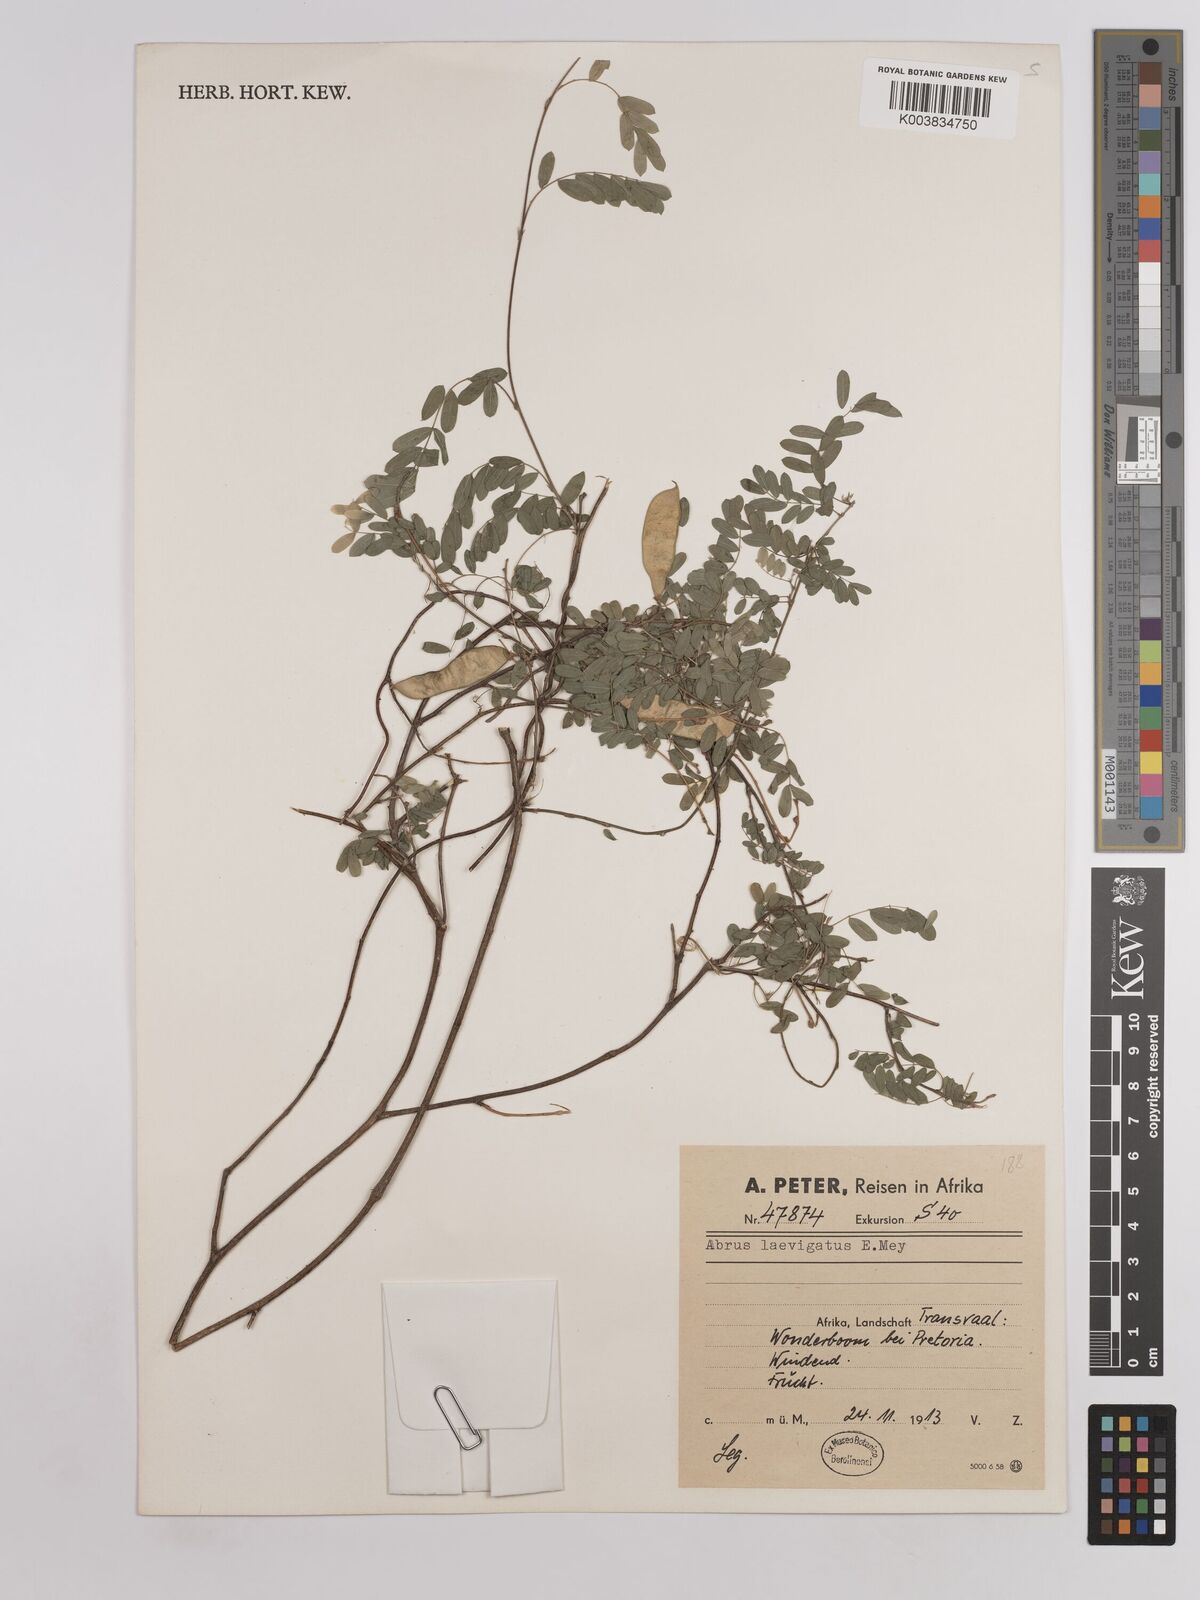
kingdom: Plantae
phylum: Tracheophyta
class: Magnoliopsida
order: Fabales
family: Fabaceae
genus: Abrus
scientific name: Abrus laevigatus
